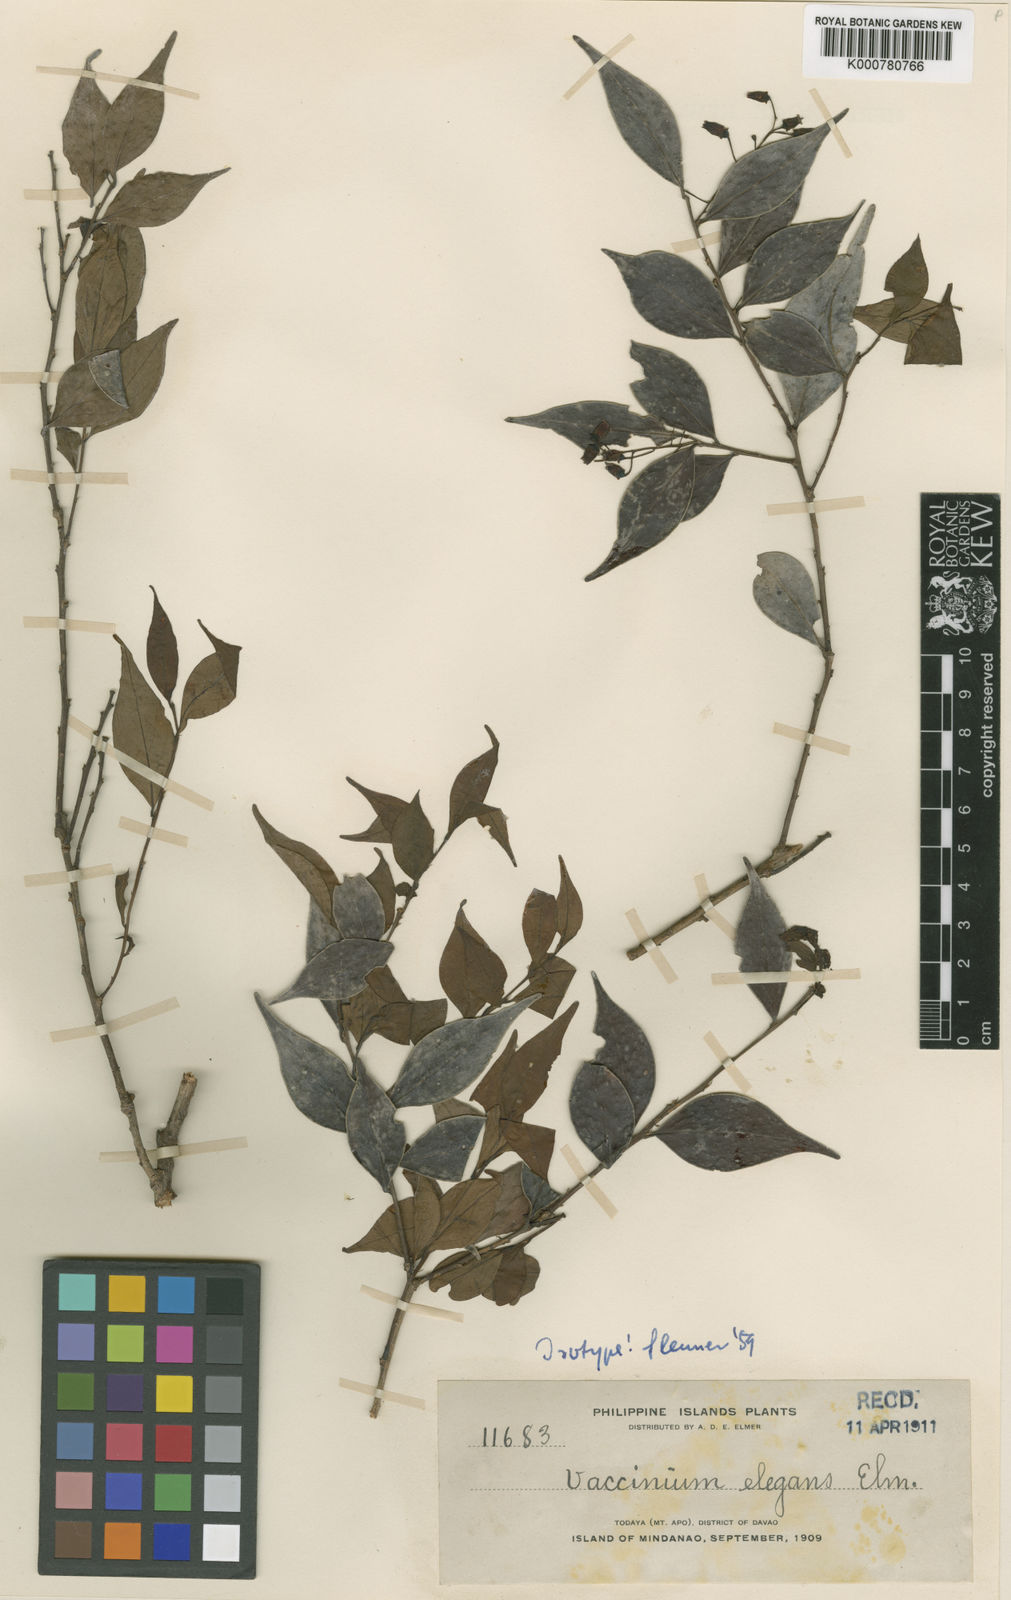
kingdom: Plantae
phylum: Tracheophyta
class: Magnoliopsida
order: Ericales
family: Ericaceae
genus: Vaccinium
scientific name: Vaccinium elegans
